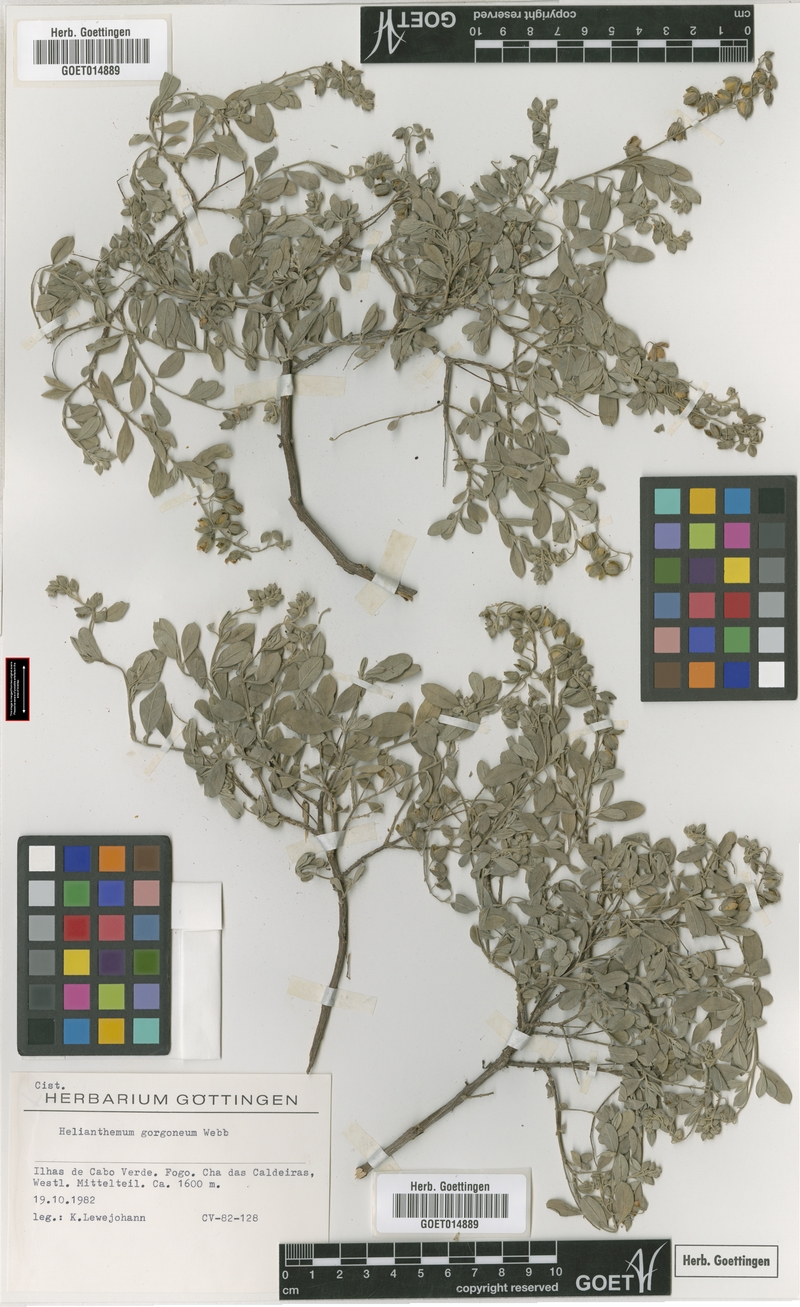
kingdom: Plantae
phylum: Tracheophyta
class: Magnoliopsida
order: Malvales
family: Cistaceae
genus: Helianthemum
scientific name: Helianthemum gorgoneum
